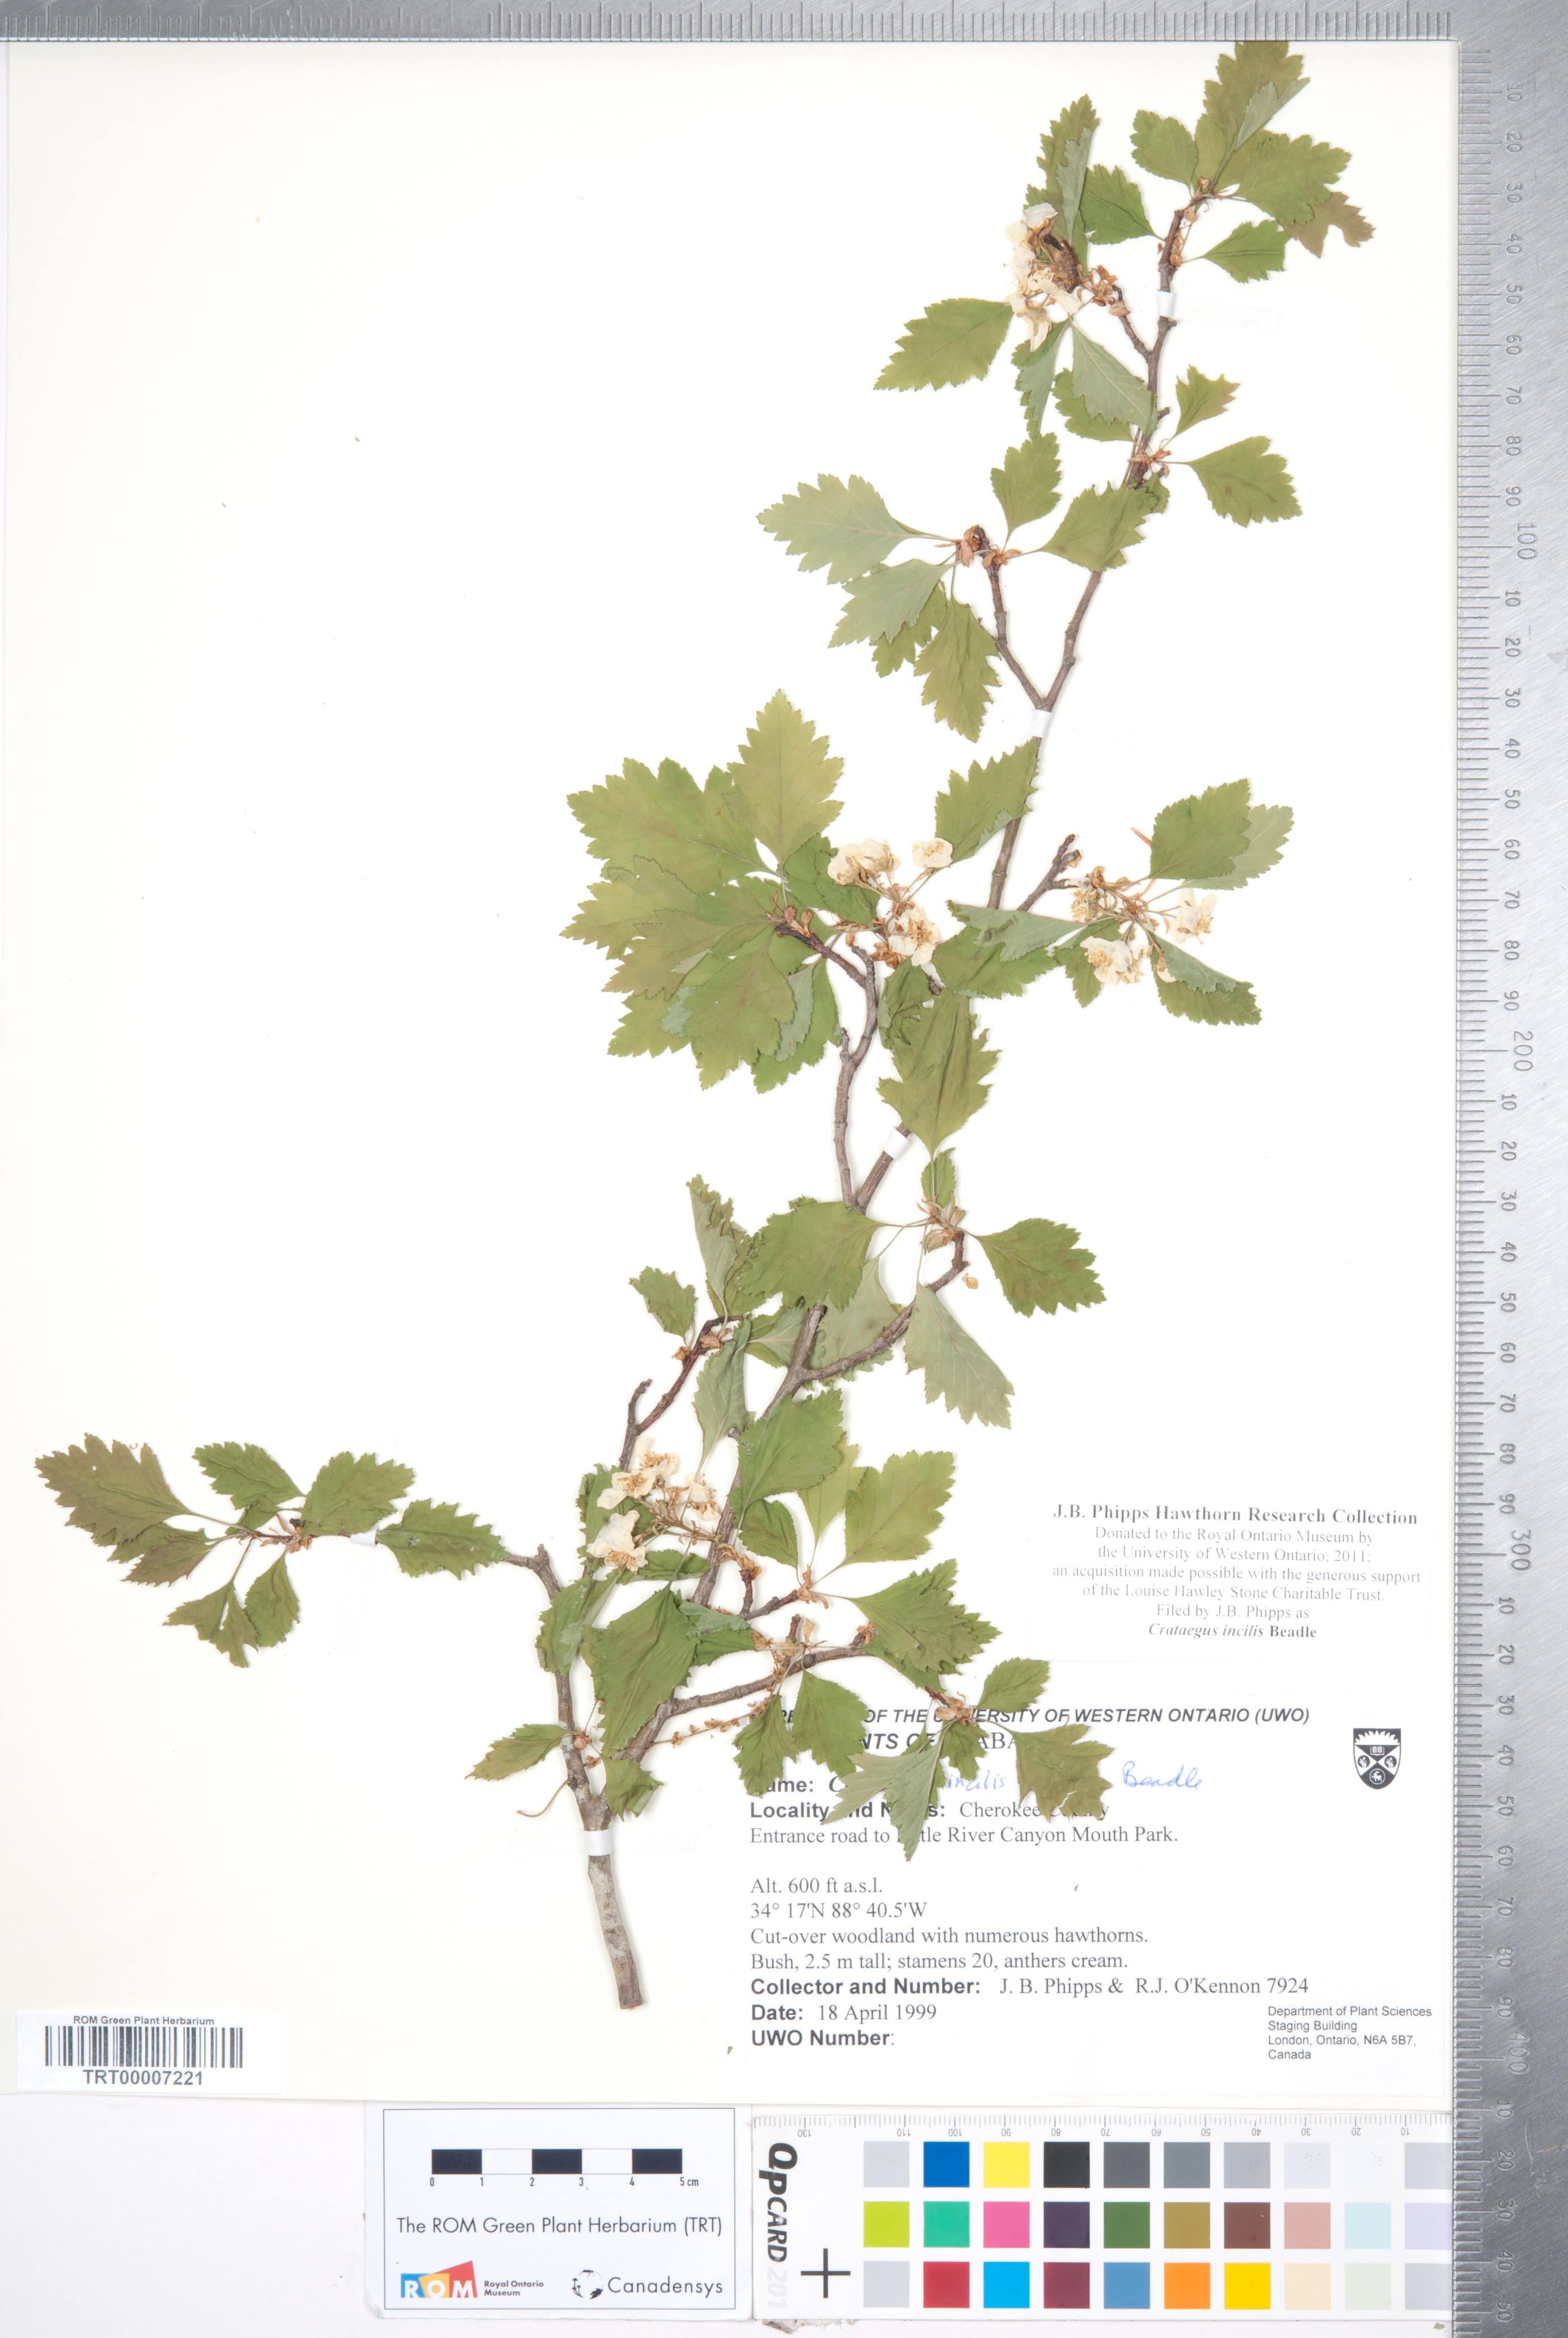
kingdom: Plantae
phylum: Tracheophyta
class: Magnoliopsida
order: Rosales
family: Rosaceae
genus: Crataegus
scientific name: Crataegus pulcherrima
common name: Beautiful hawthorn
